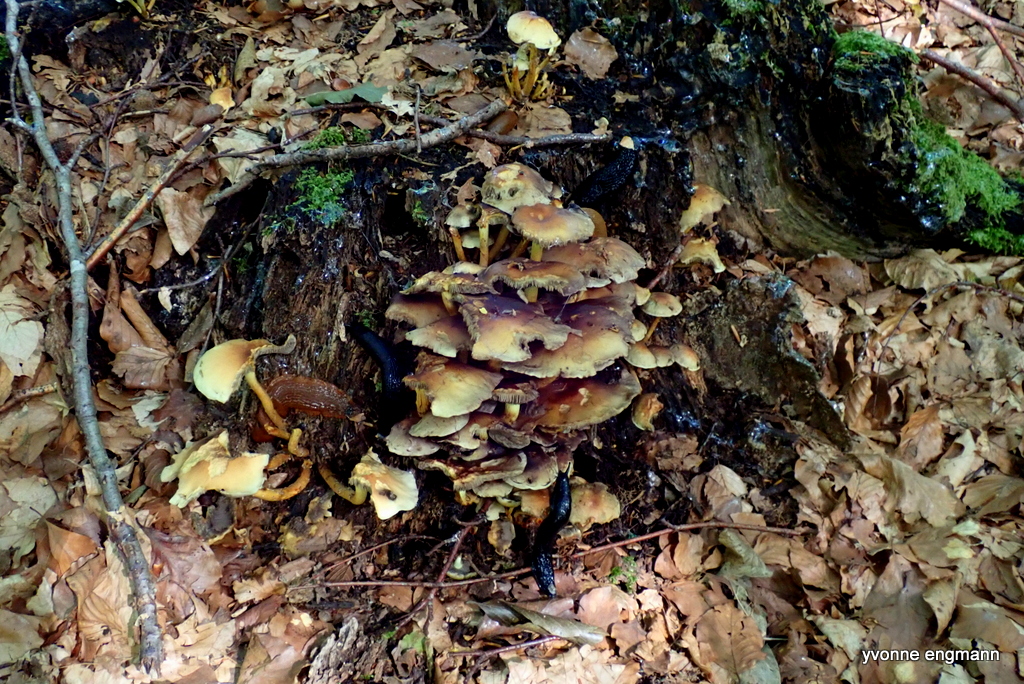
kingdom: Fungi
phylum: Basidiomycota
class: Agaricomycetes
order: Agaricales
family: Strophariaceae
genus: Hypholoma
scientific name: Hypholoma fasciculare
